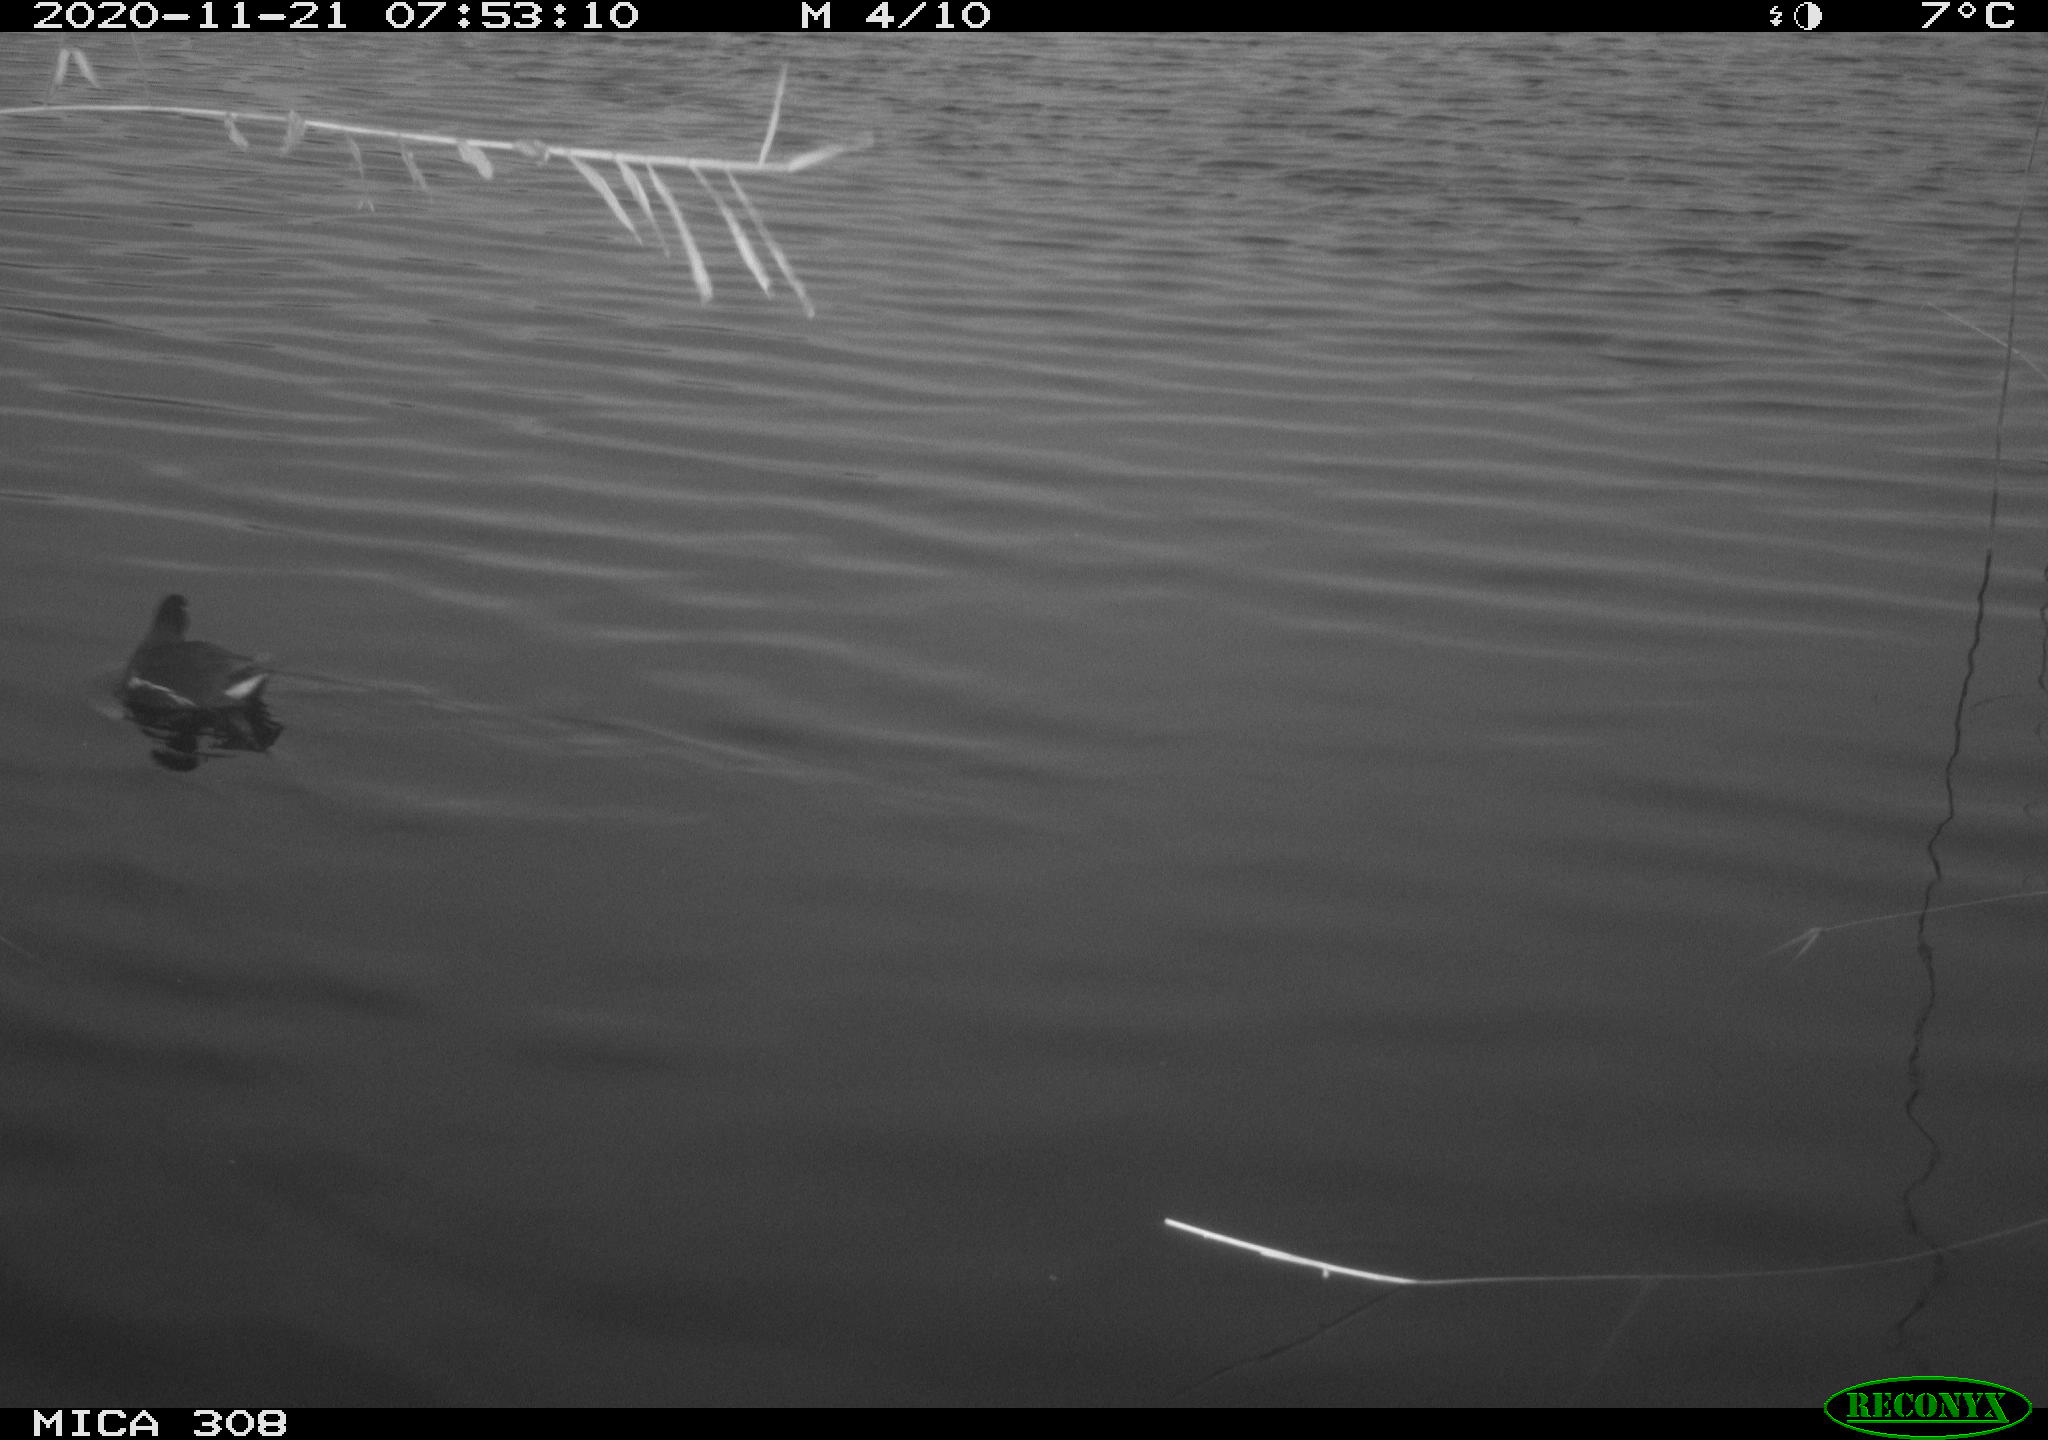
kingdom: Animalia
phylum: Chordata
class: Aves
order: Gruiformes
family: Rallidae
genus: Gallinula
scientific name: Gallinula chloropus
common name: Common moorhen
